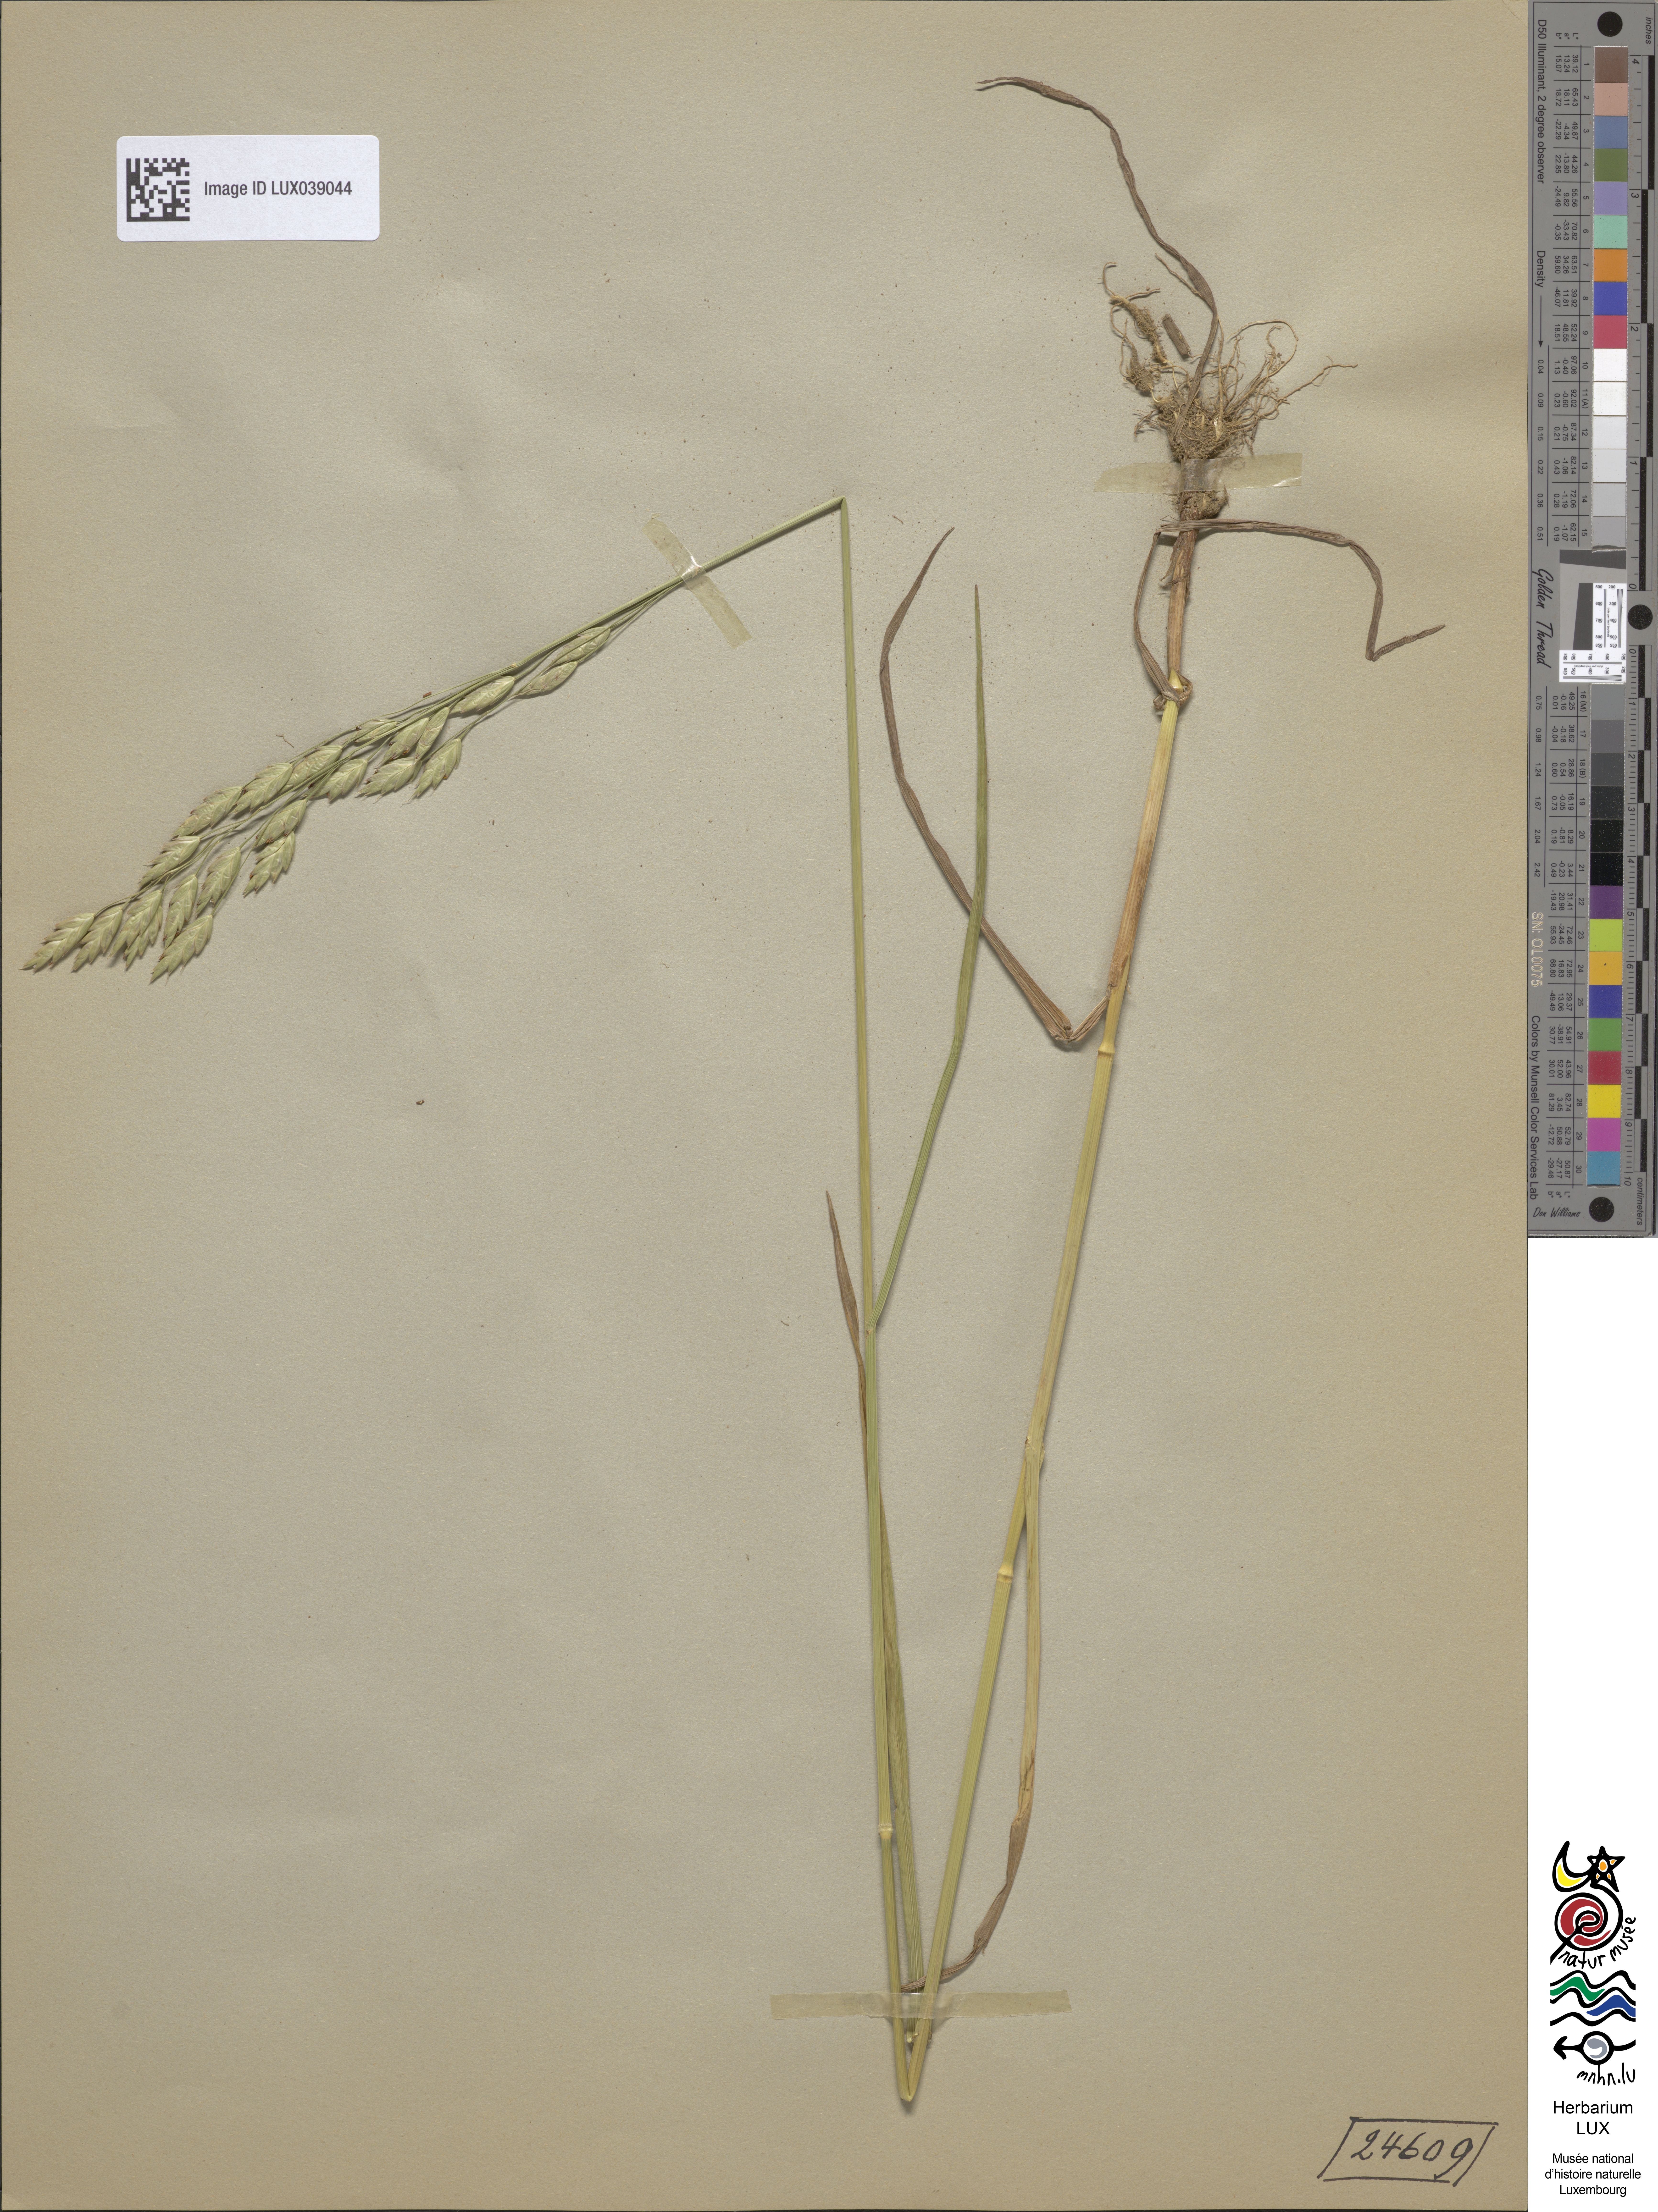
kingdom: Plantae
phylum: Tracheophyta
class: Liliopsida
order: Poales
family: Poaceae
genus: Bromus
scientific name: Bromus secalinus
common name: Rye brome
